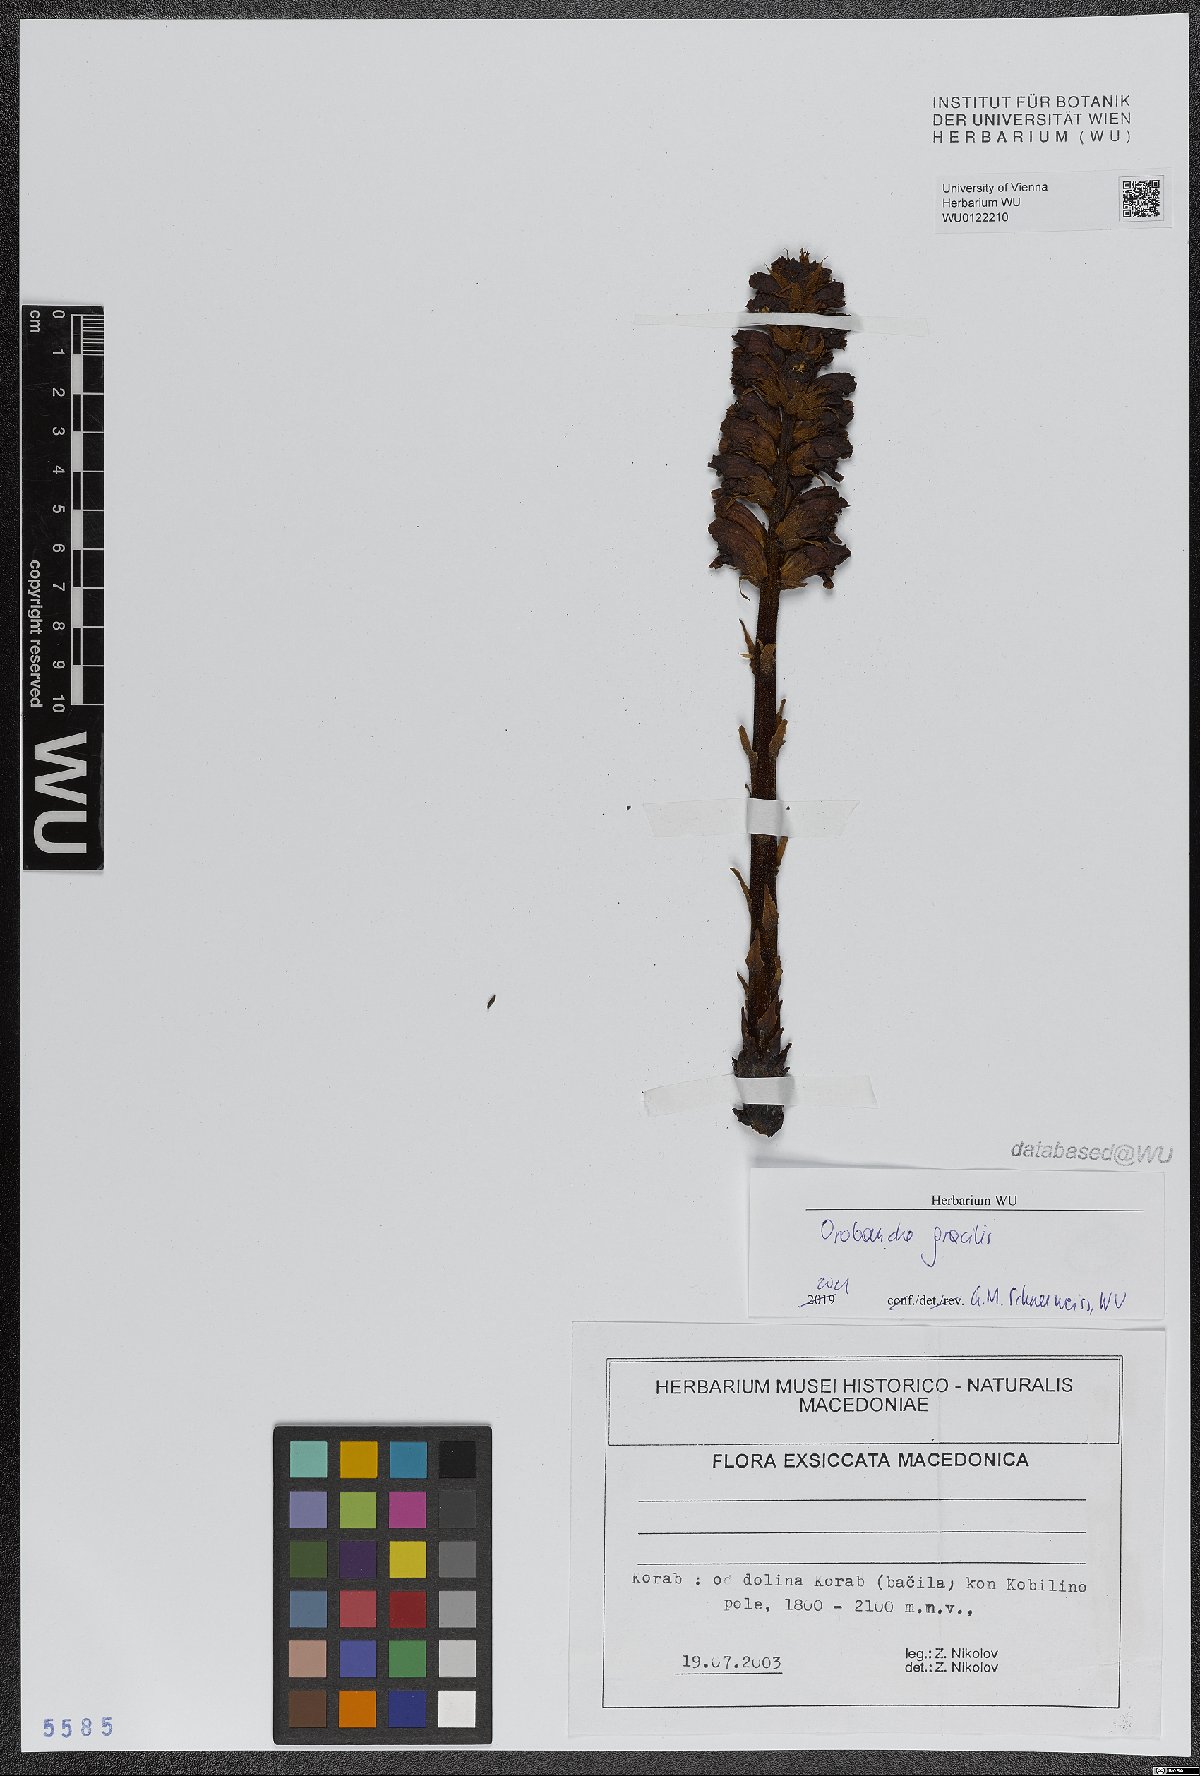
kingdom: Plantae
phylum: Tracheophyta
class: Magnoliopsida
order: Lamiales
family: Orobanchaceae
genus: Orobanche
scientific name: Orobanche gracilis
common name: Slender broomrape
